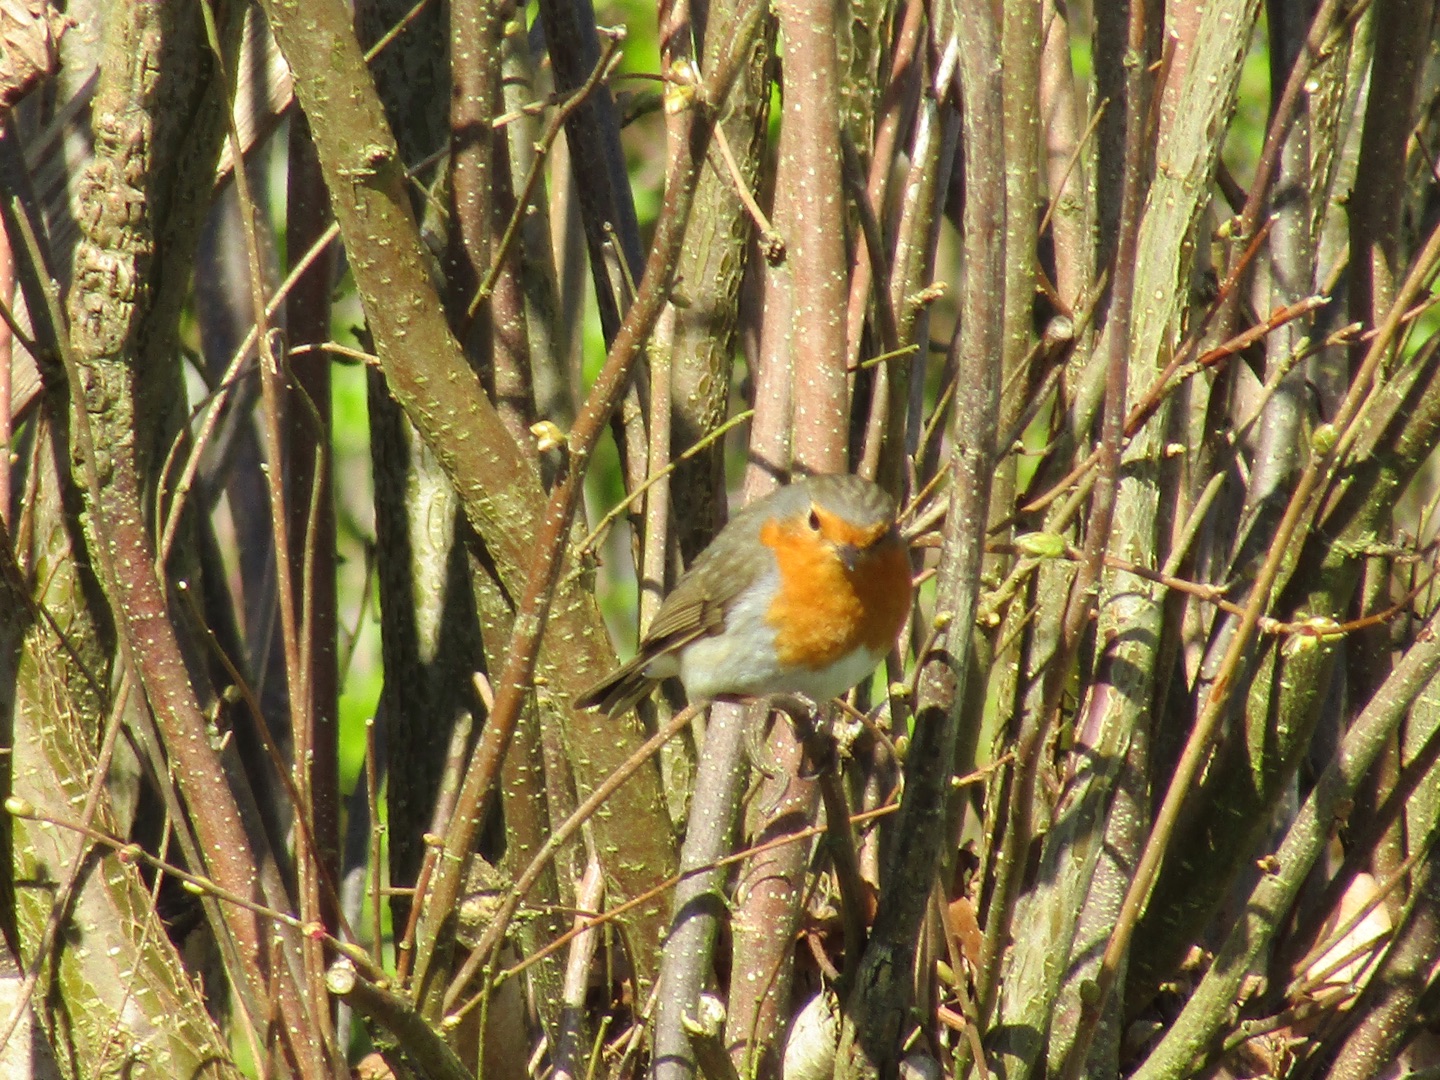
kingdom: Animalia
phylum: Chordata
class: Aves
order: Passeriformes
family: Muscicapidae
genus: Erithacus
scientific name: Erithacus rubecula
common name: Rødhals/rødkælk
